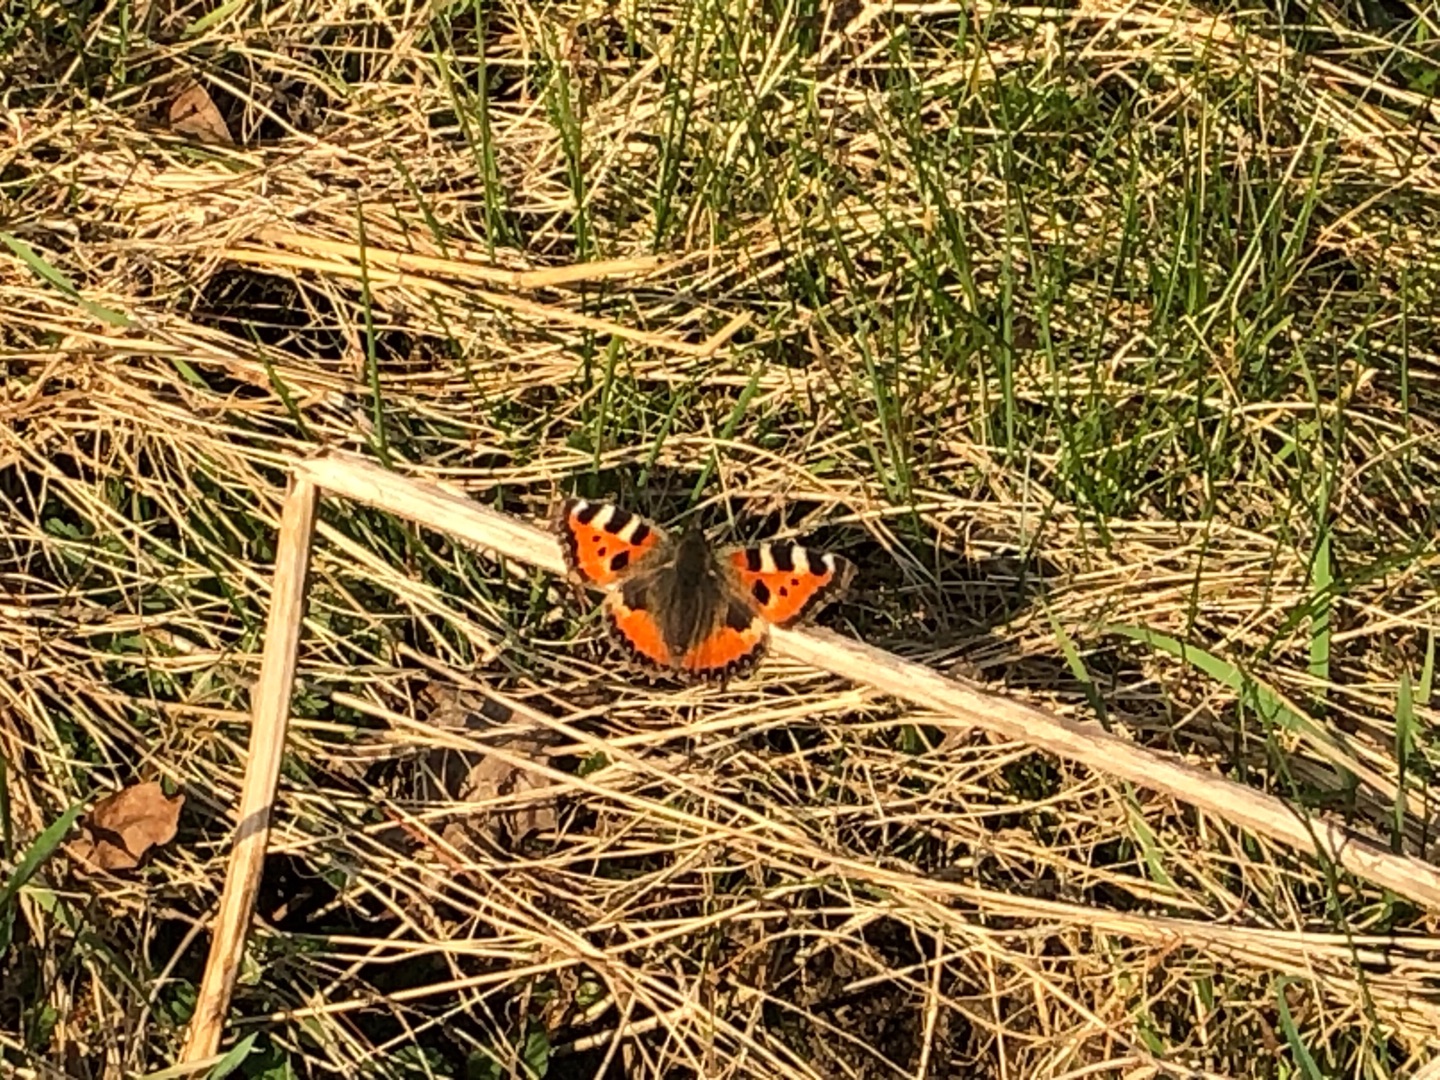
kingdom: Animalia
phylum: Arthropoda
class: Insecta
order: Lepidoptera
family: Nymphalidae
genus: Aglais
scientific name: Aglais urticae
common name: Nældens takvinge
